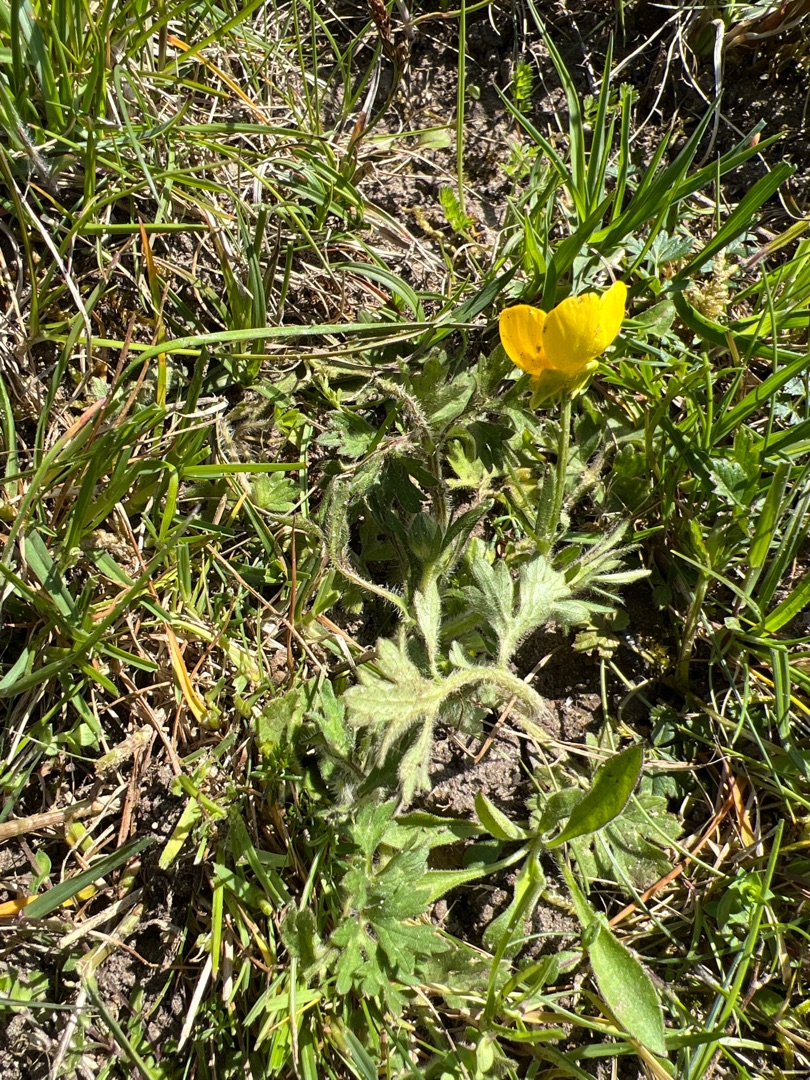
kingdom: Plantae
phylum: Tracheophyta
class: Magnoliopsida
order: Ranunculales
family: Ranunculaceae
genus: Ranunculus
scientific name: Ranunculus bulbosus
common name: Knold-ranunkel
